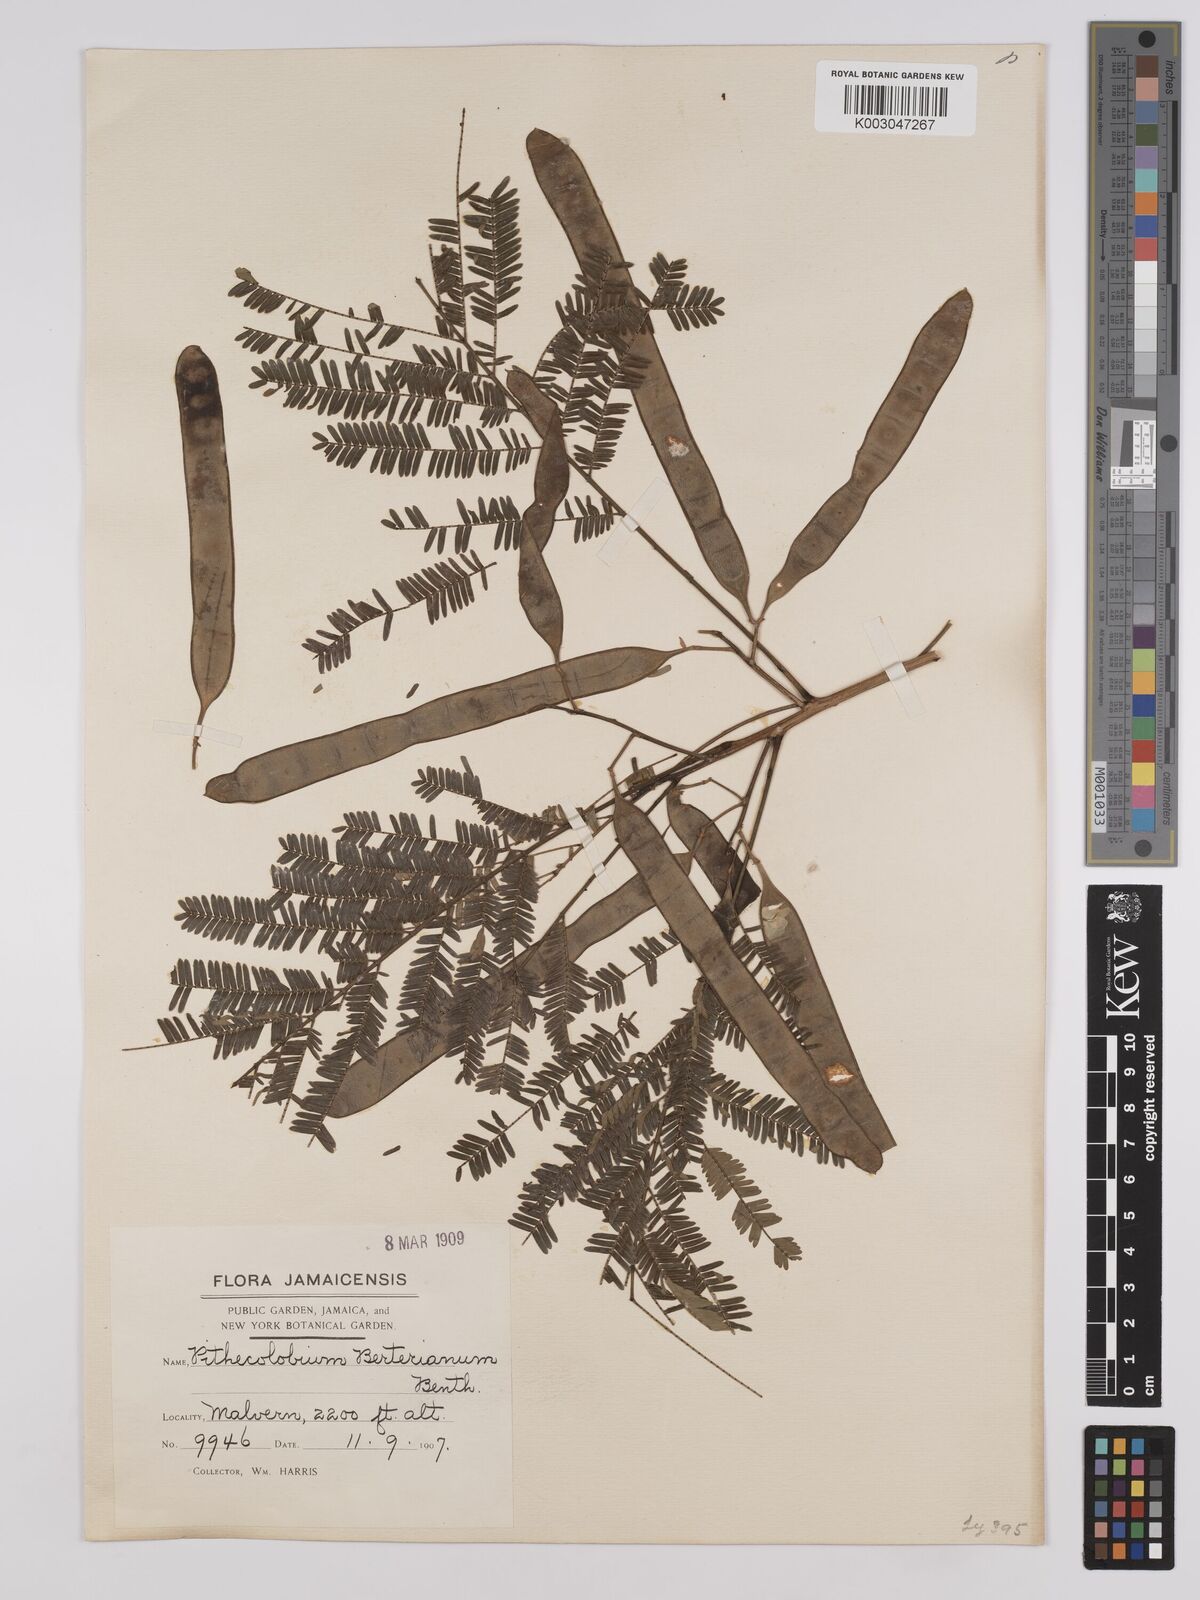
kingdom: Plantae
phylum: Tracheophyta
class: Magnoliopsida
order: Fabales
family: Fabaceae
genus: Albizia
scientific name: Albizia
